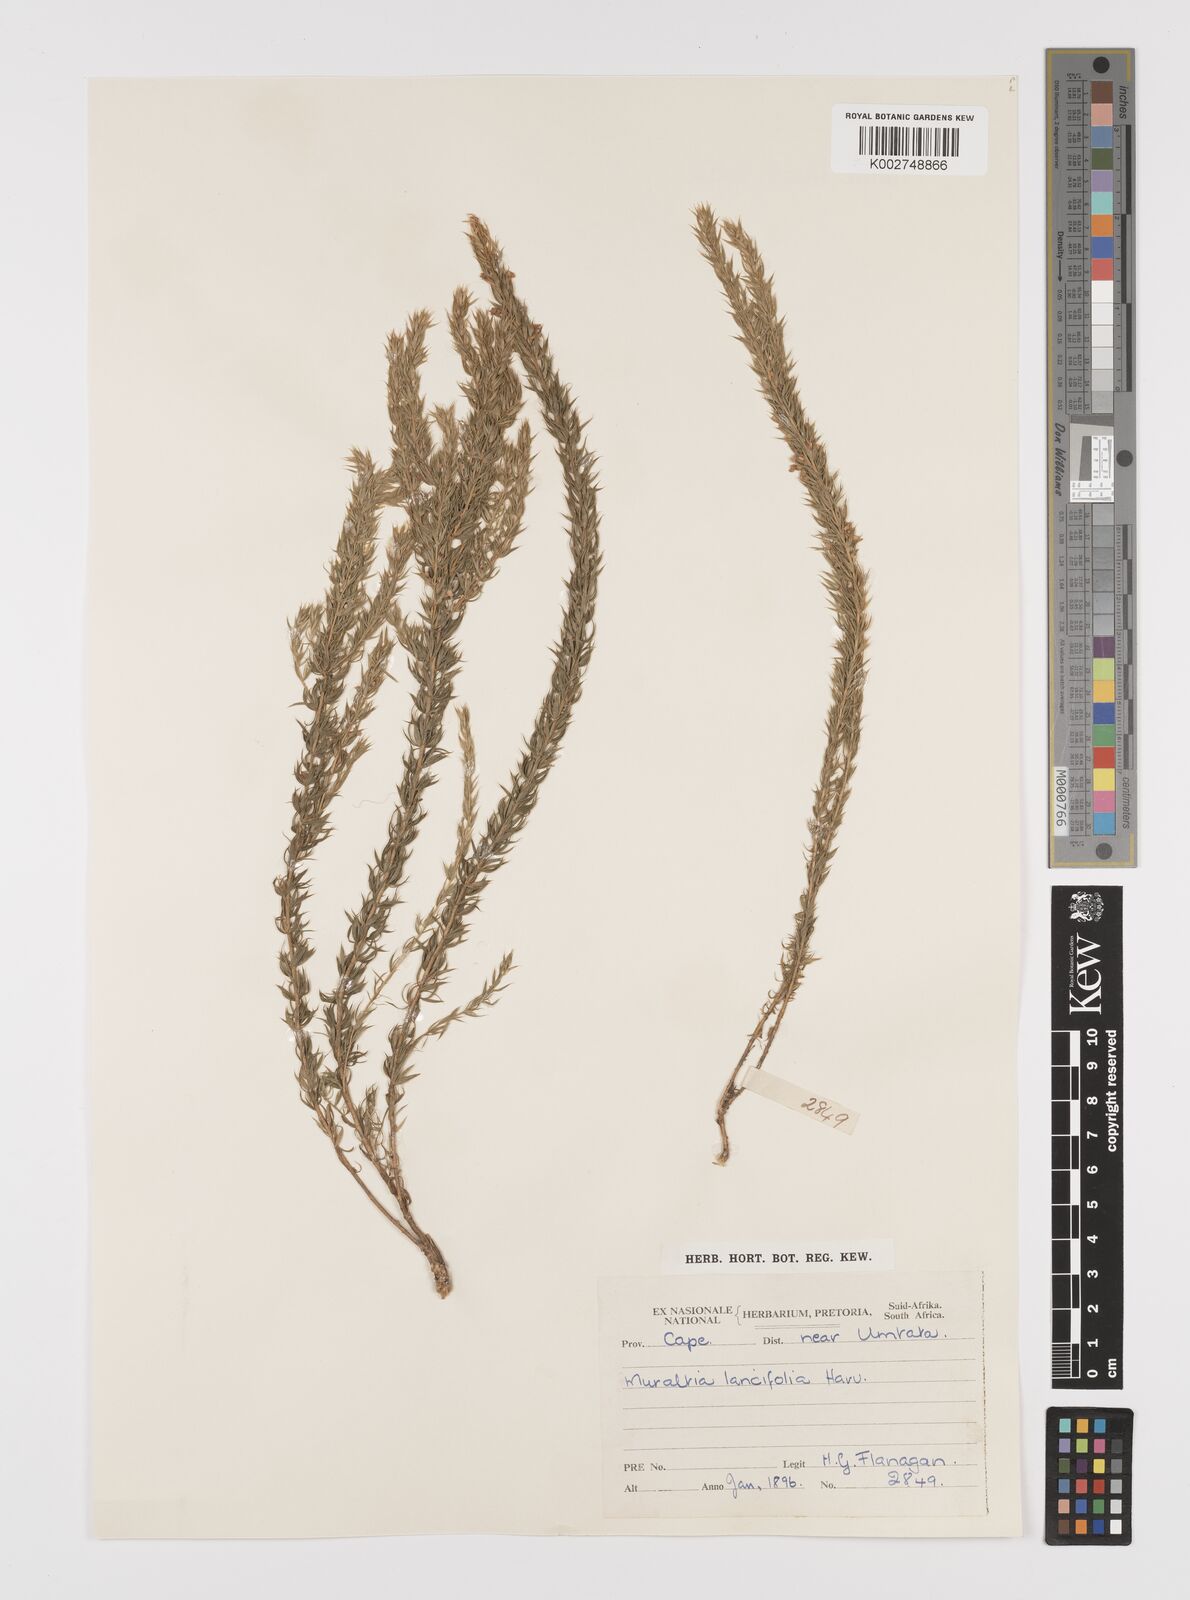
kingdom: Plantae
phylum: Tracheophyta
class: Magnoliopsida
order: Fabales
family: Polygalaceae
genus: Muraltia
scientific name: Muraltia lancifolia
